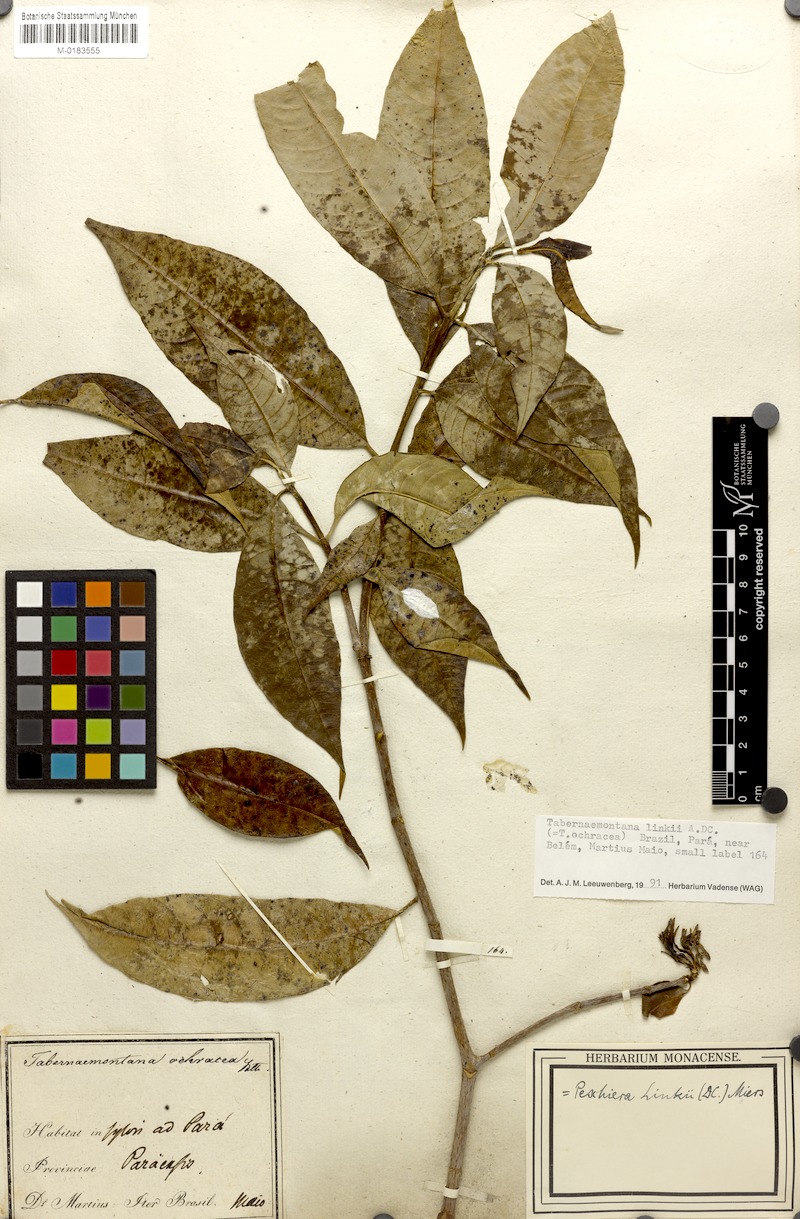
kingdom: Plantae
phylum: Tracheophyta
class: Magnoliopsida
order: Gentianales
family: Apocynaceae
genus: Tabernaemontana
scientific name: Tabernaemontana linkii
